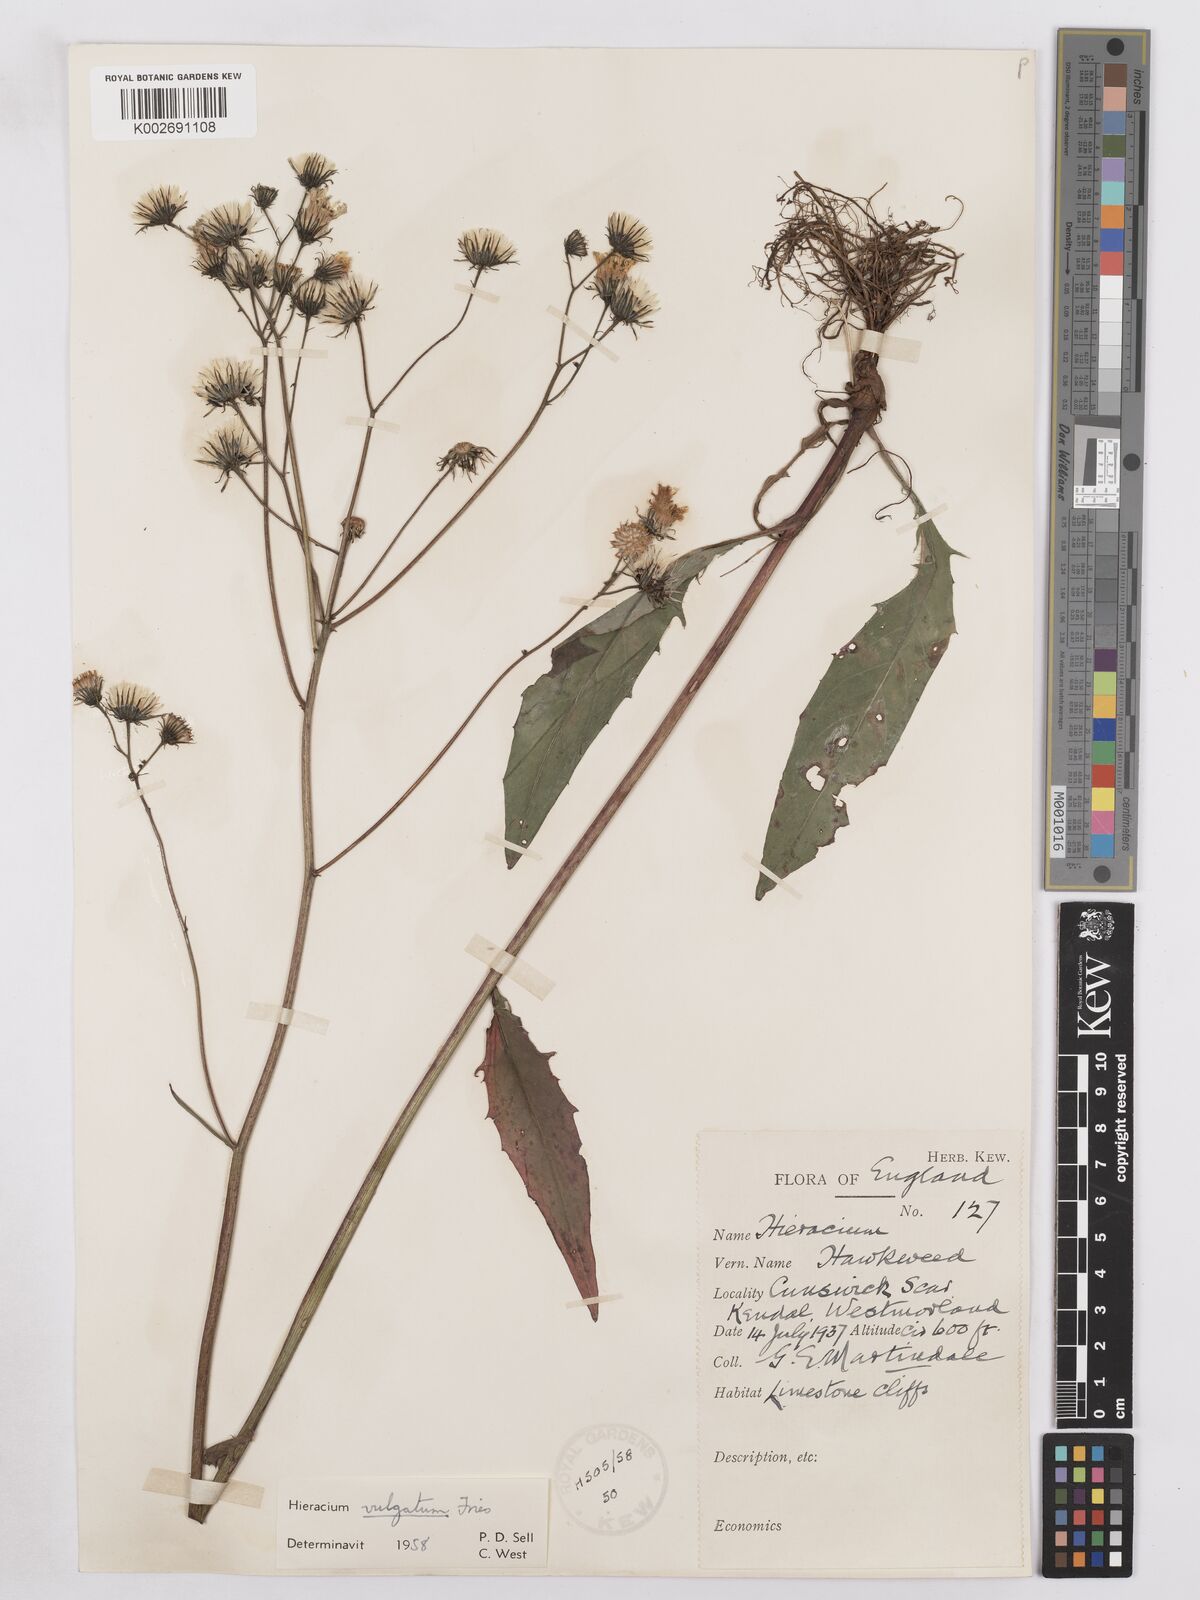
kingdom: Plantae
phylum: Tracheophyta
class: Magnoliopsida
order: Asterales
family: Asteraceae
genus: Hieracium
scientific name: Hieracium lachenalii
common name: Common hawkweed
